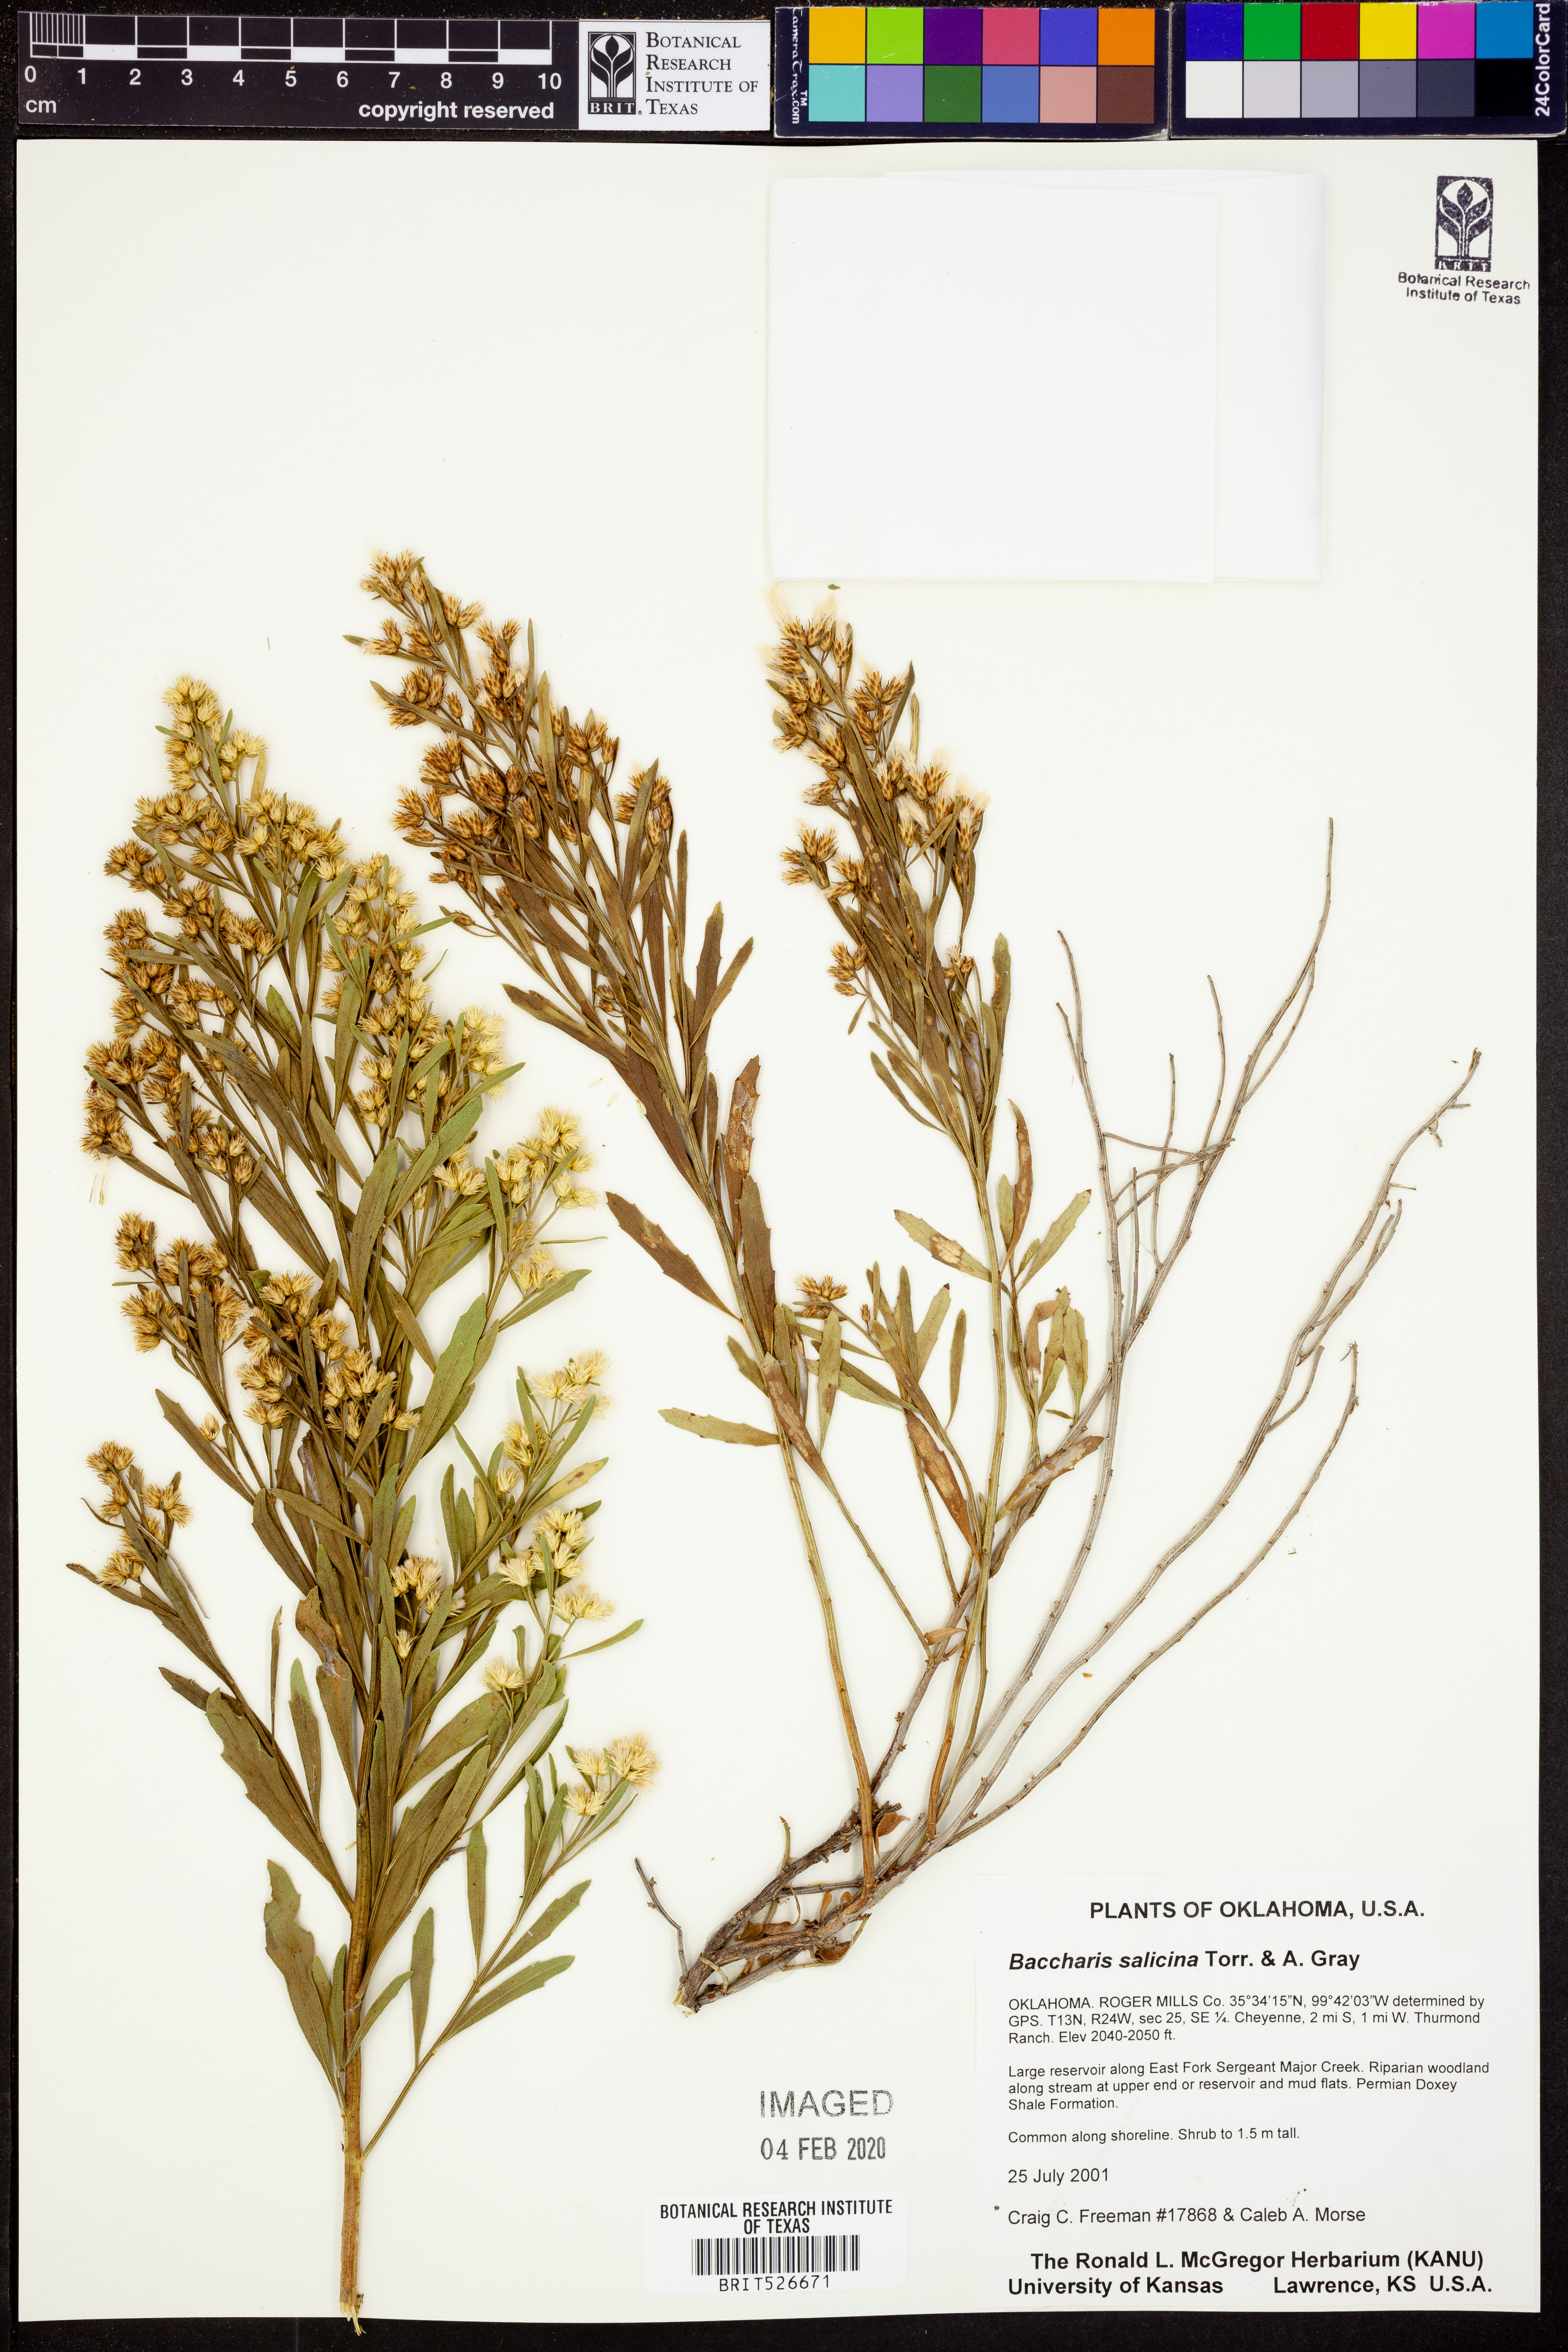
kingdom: Plantae
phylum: Tracheophyta
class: Magnoliopsida
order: Asterales
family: Asteraceae
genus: Baccharis
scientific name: Baccharis salicina
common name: Willow baccharis
